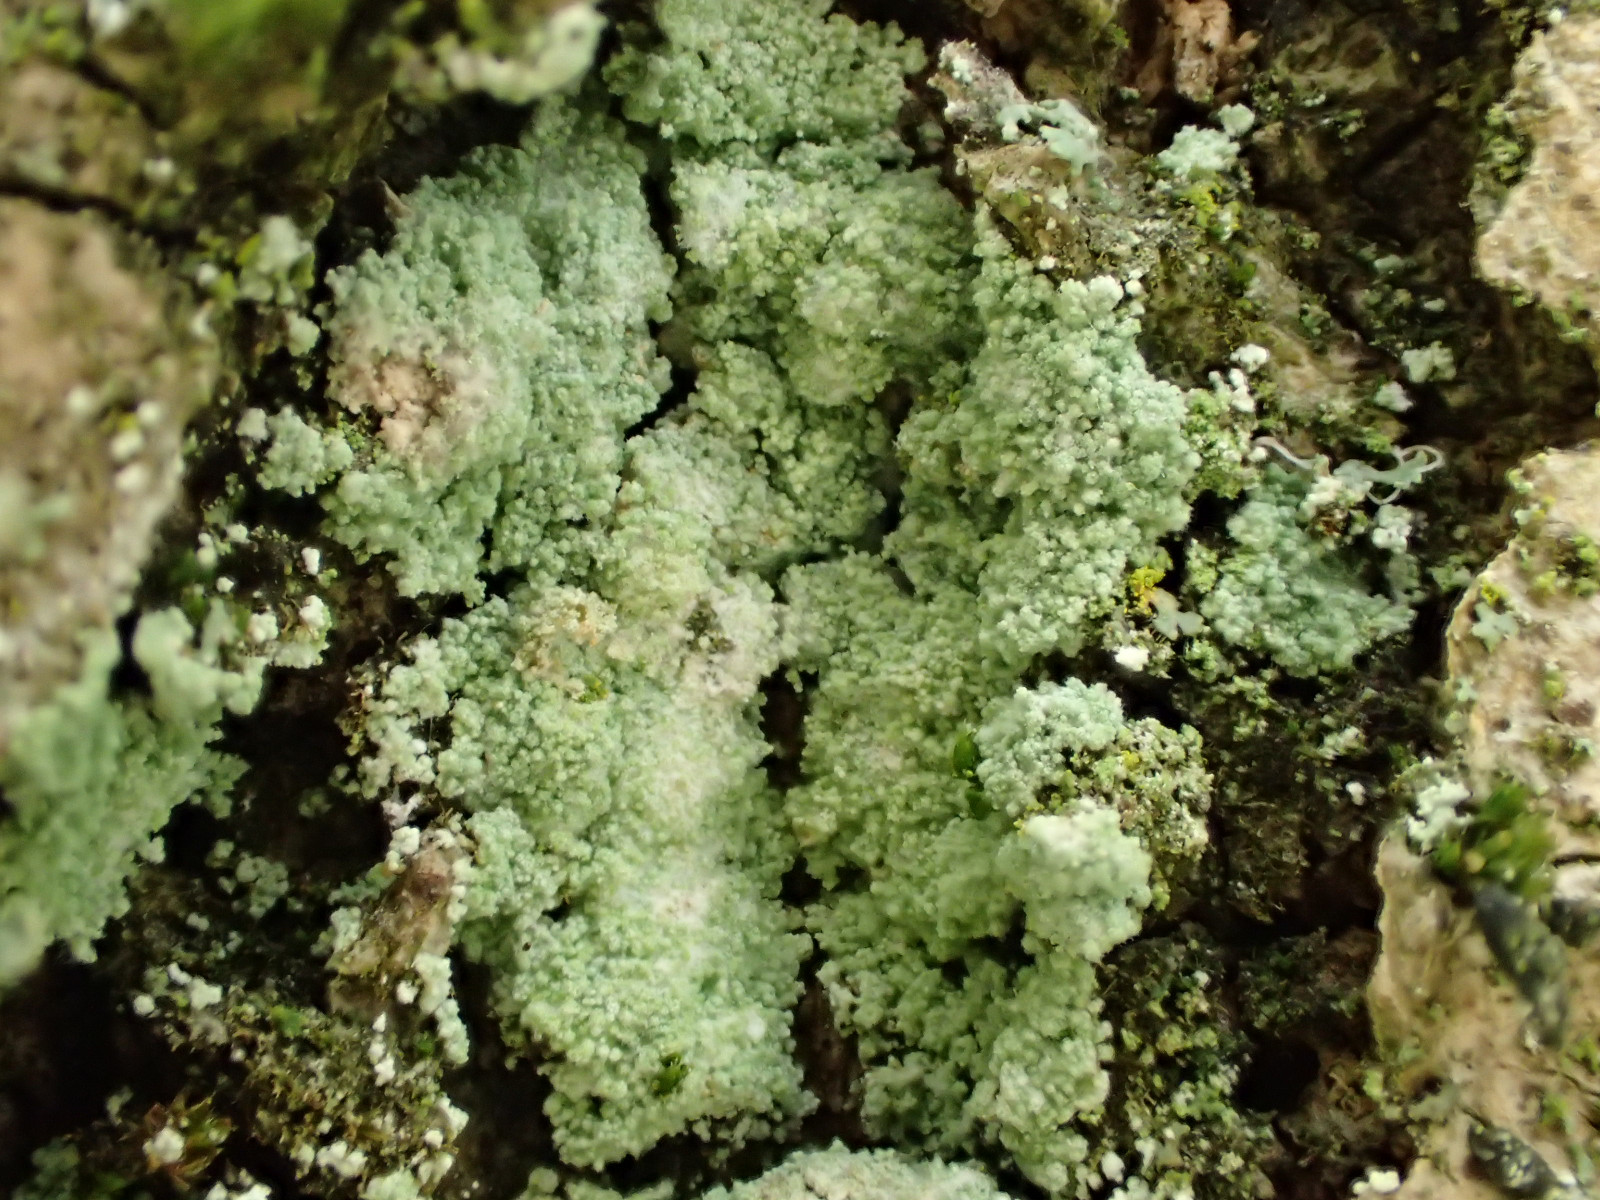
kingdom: Fungi
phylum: Ascomycota
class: Lecanoromycetes
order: Lecanorales
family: Stereocaulaceae
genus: Lepraria
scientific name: Lepraria lobificans
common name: grøn støvlav
